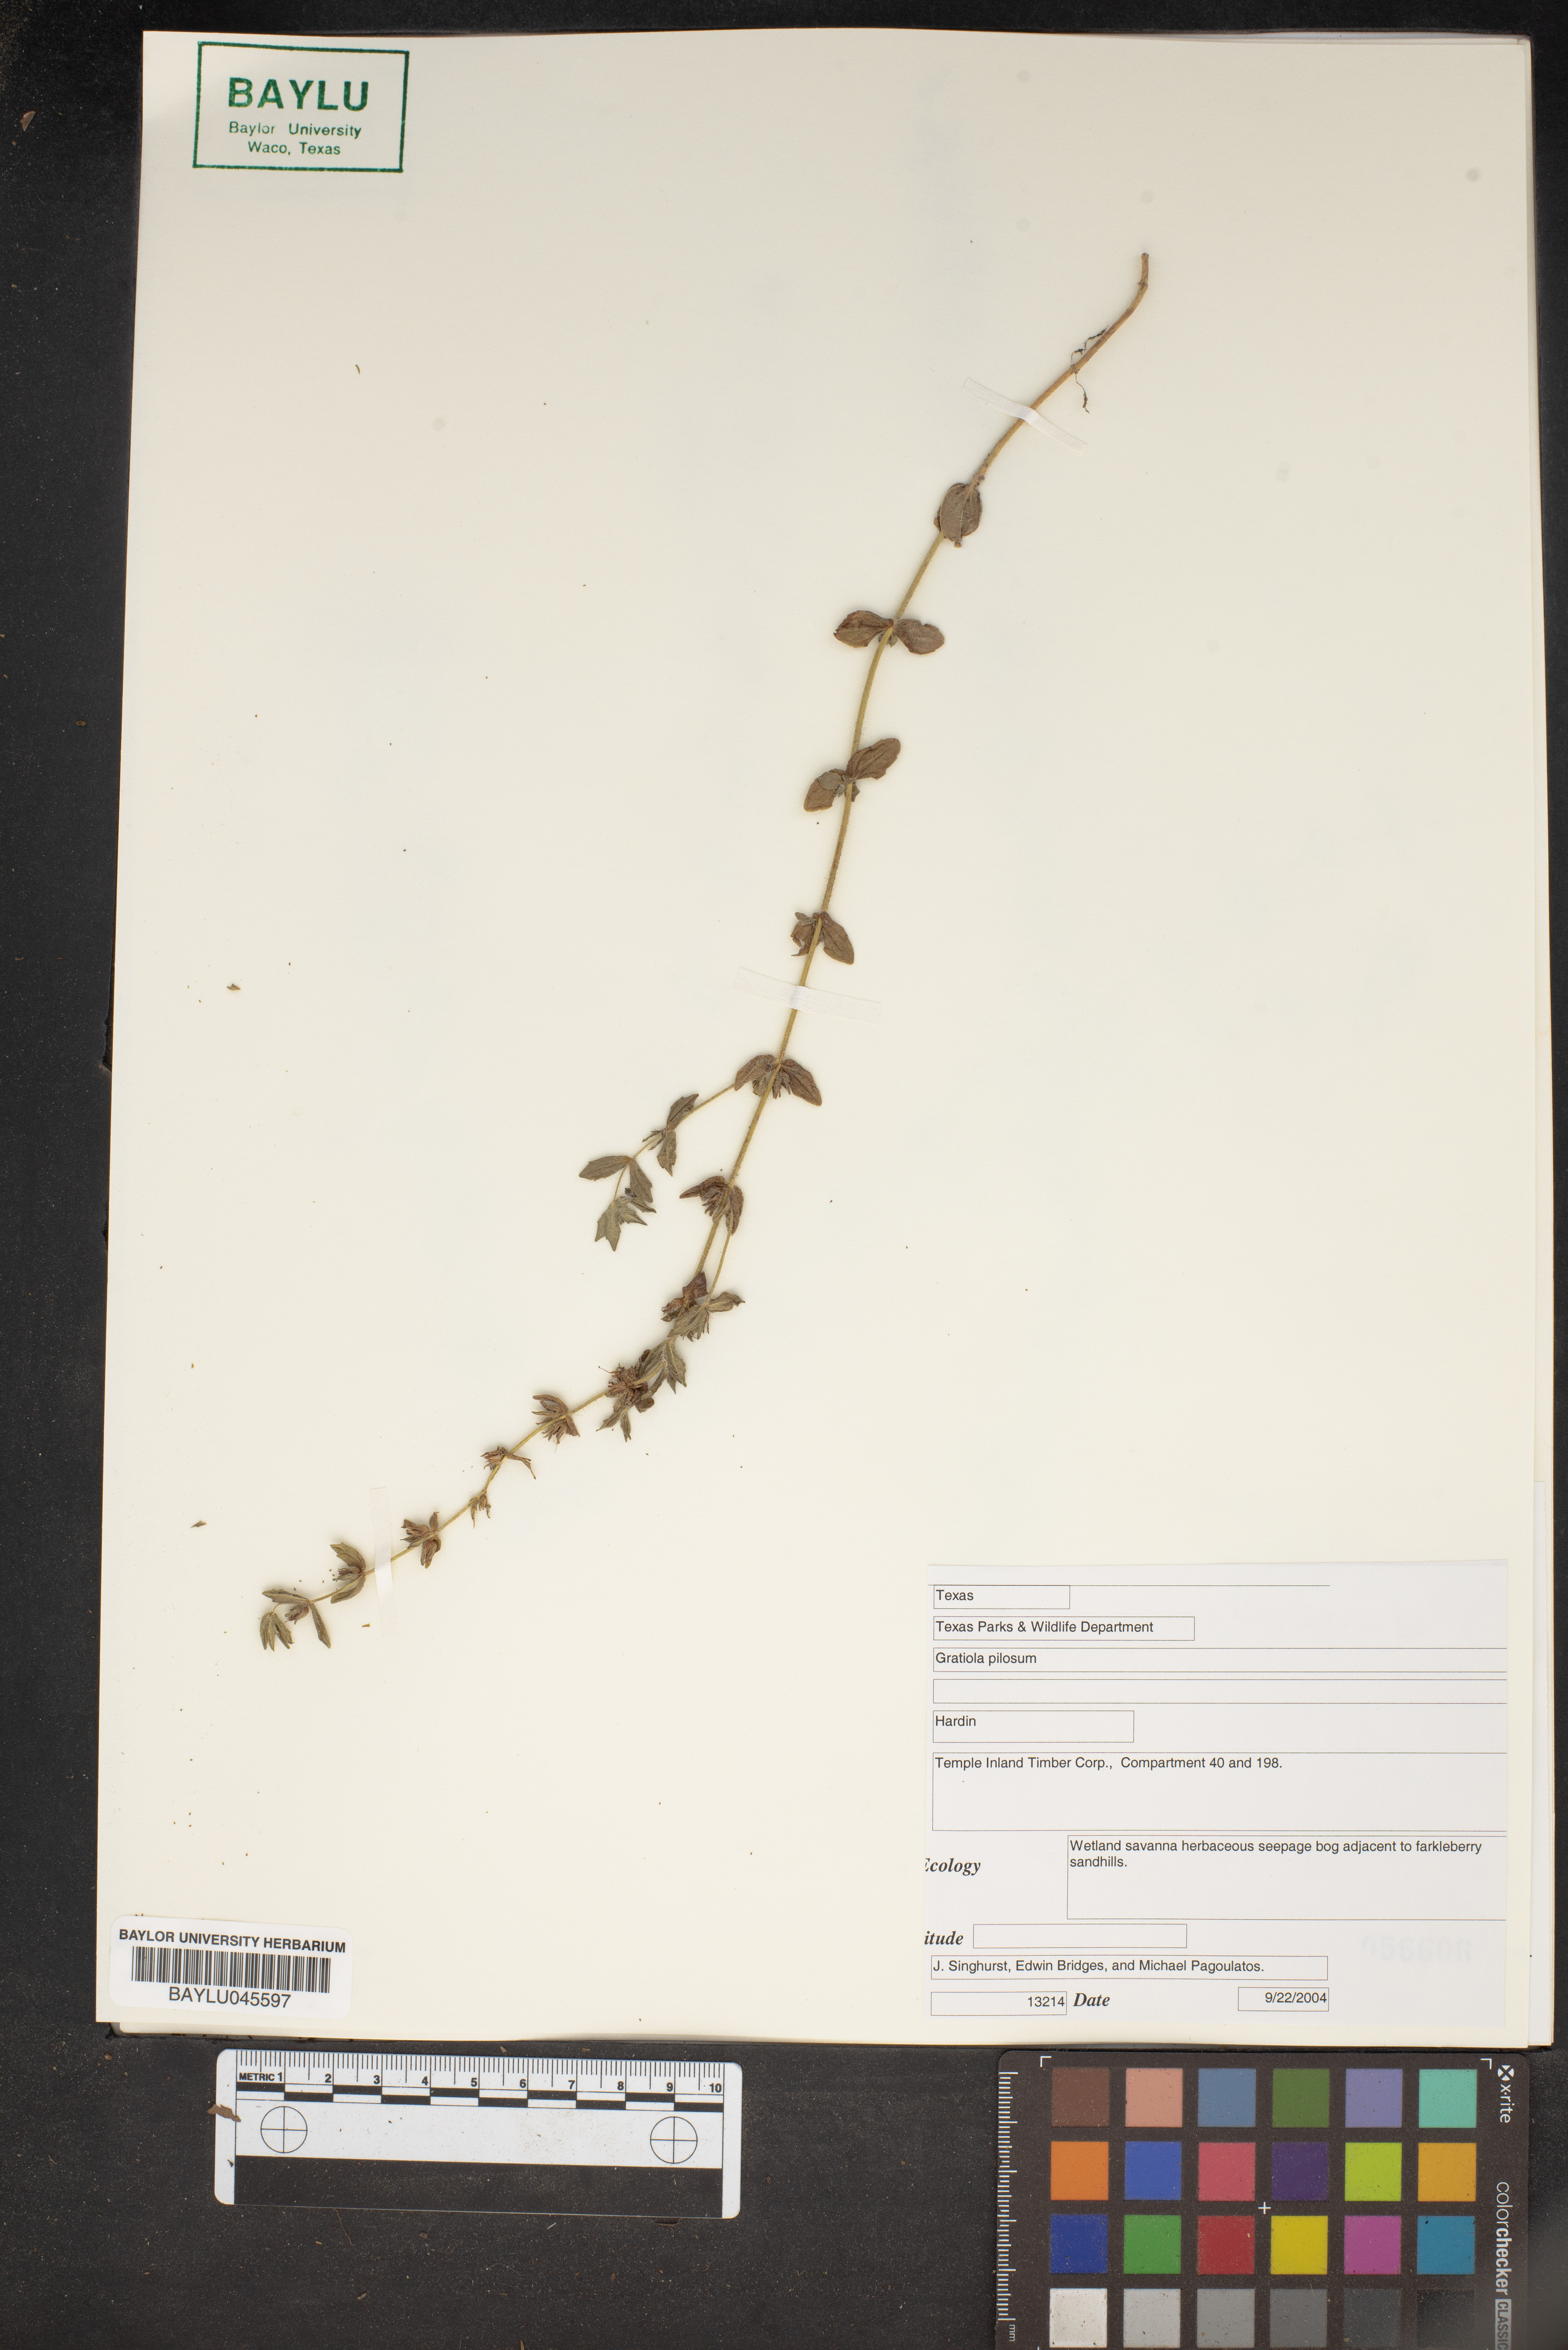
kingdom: Plantae
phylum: Tracheophyta
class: Magnoliopsida
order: Lamiales
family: Plantaginaceae
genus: Gratiola
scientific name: Gratiola pilosa
